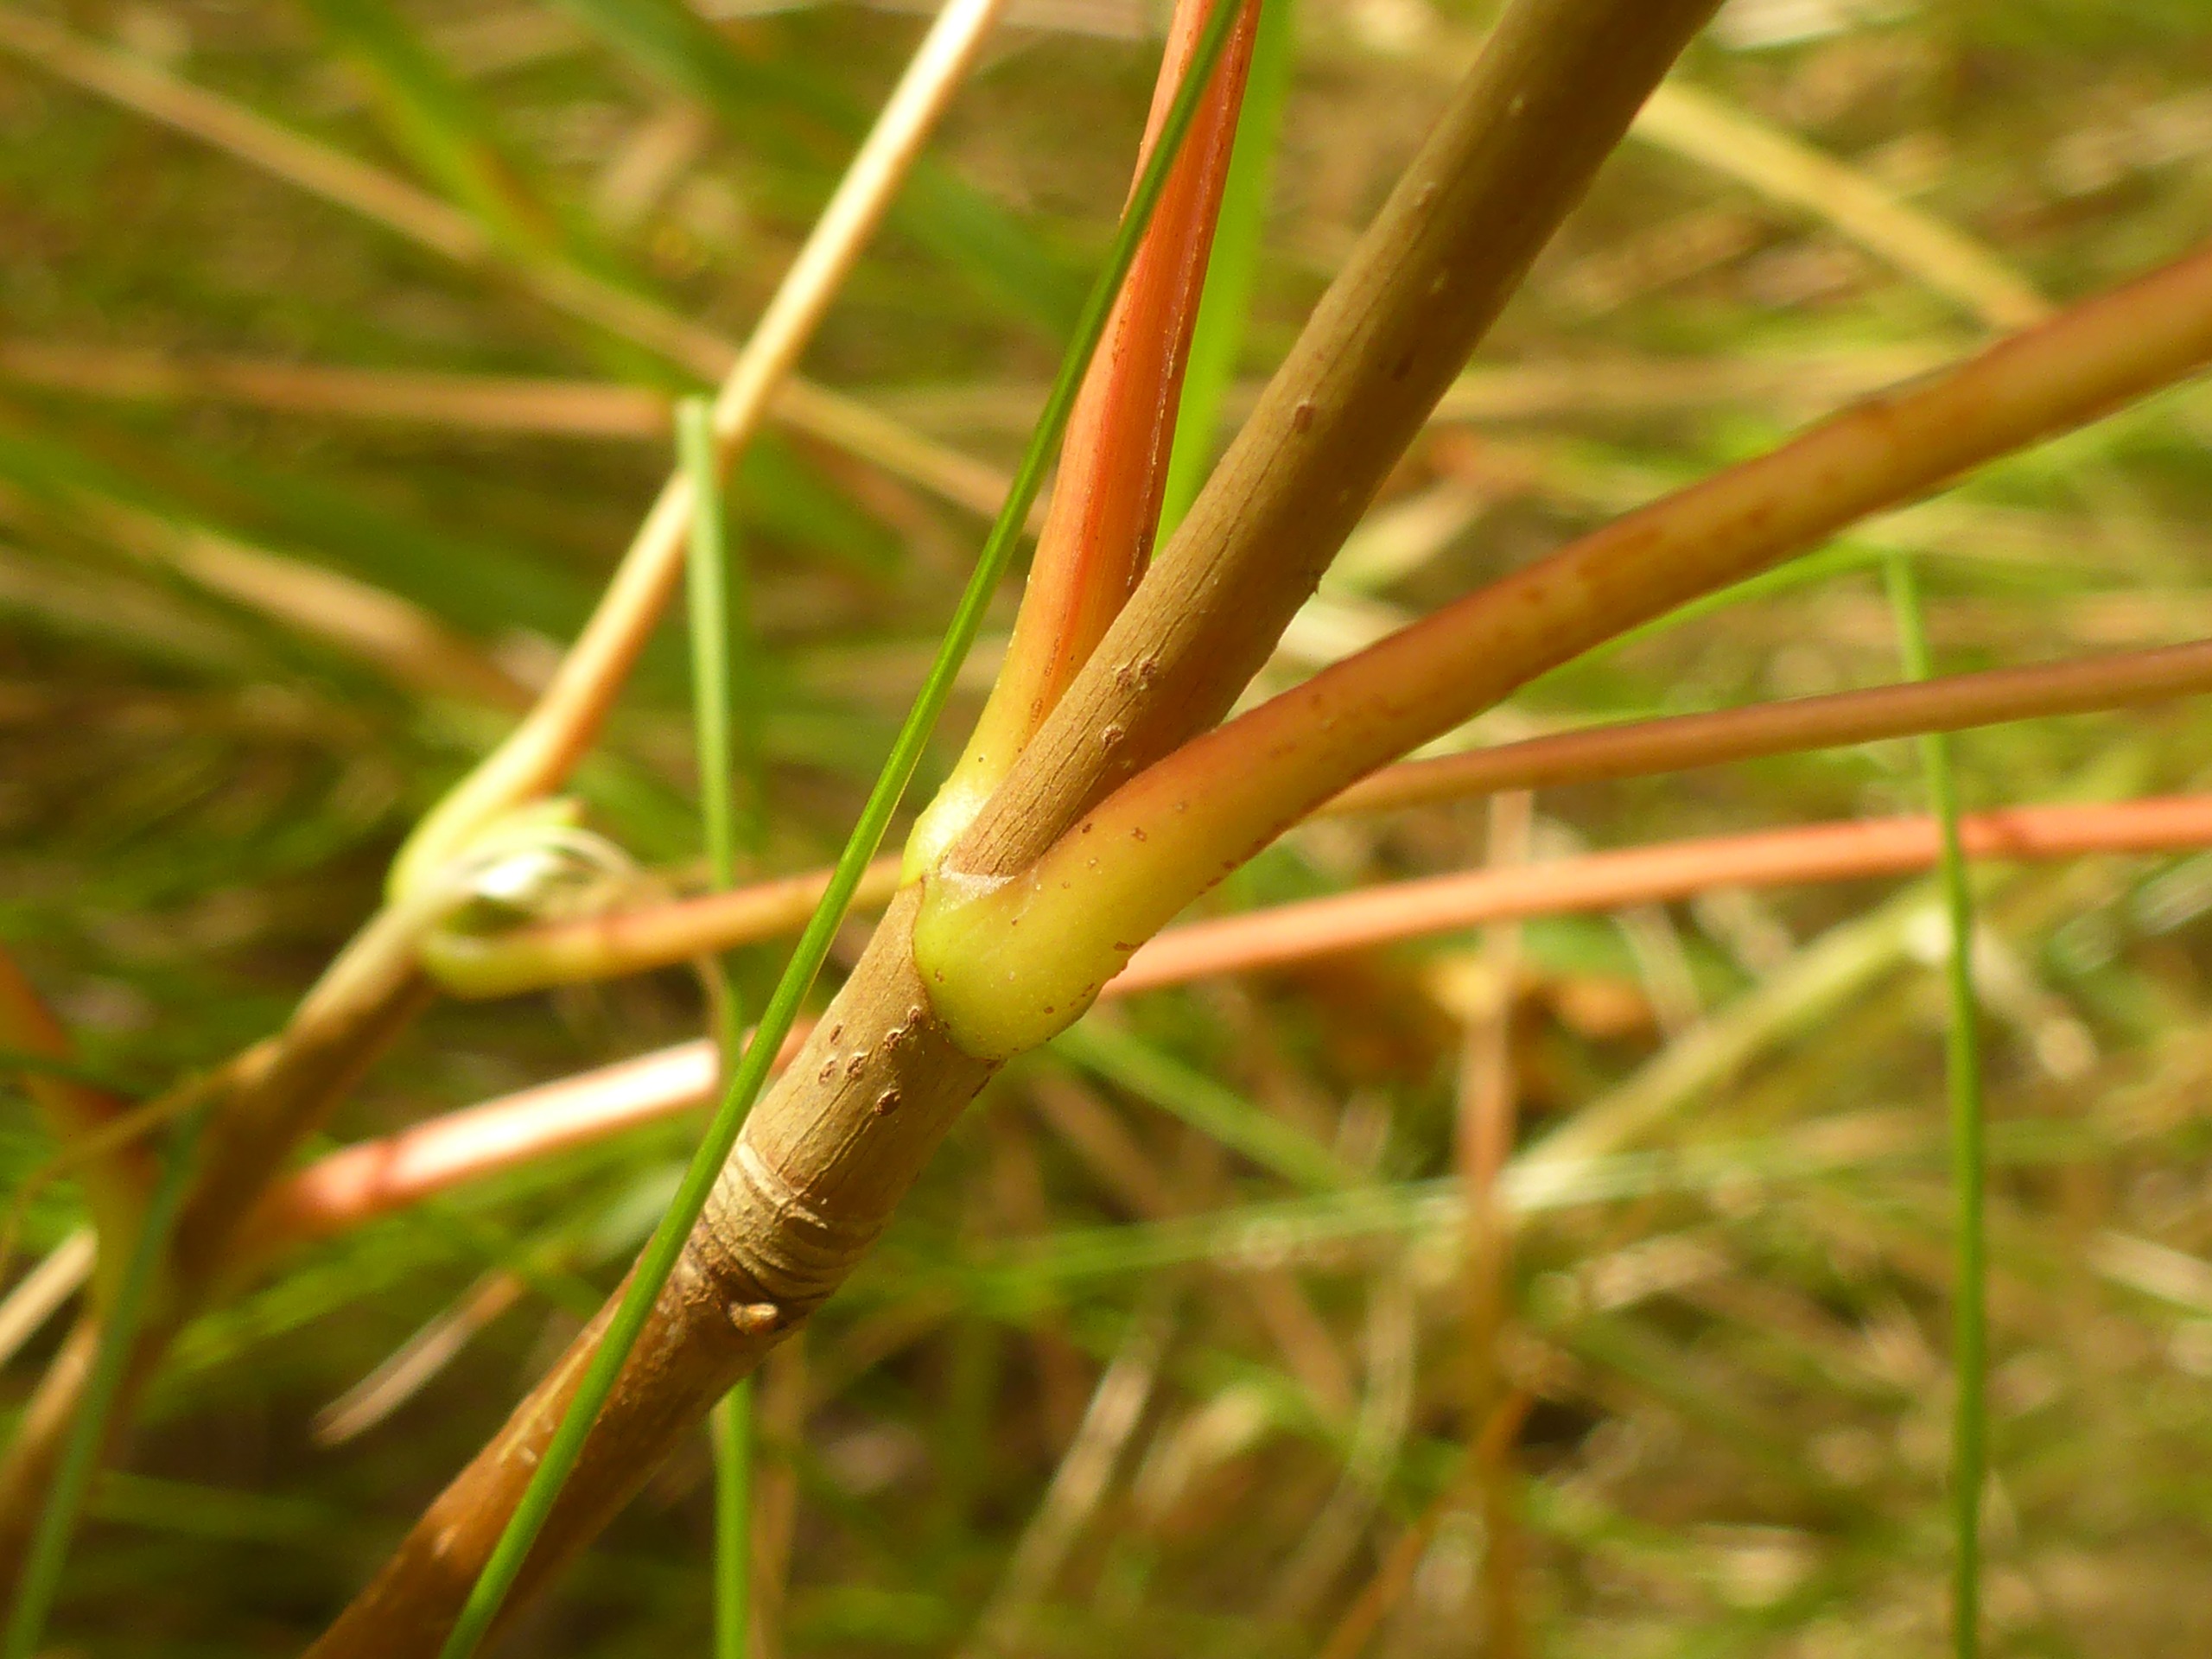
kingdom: Plantae
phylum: Tracheophyta
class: Magnoliopsida
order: Sapindales
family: Sapindaceae
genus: Acer
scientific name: Acer pseudoplatanus
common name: Ahorn
